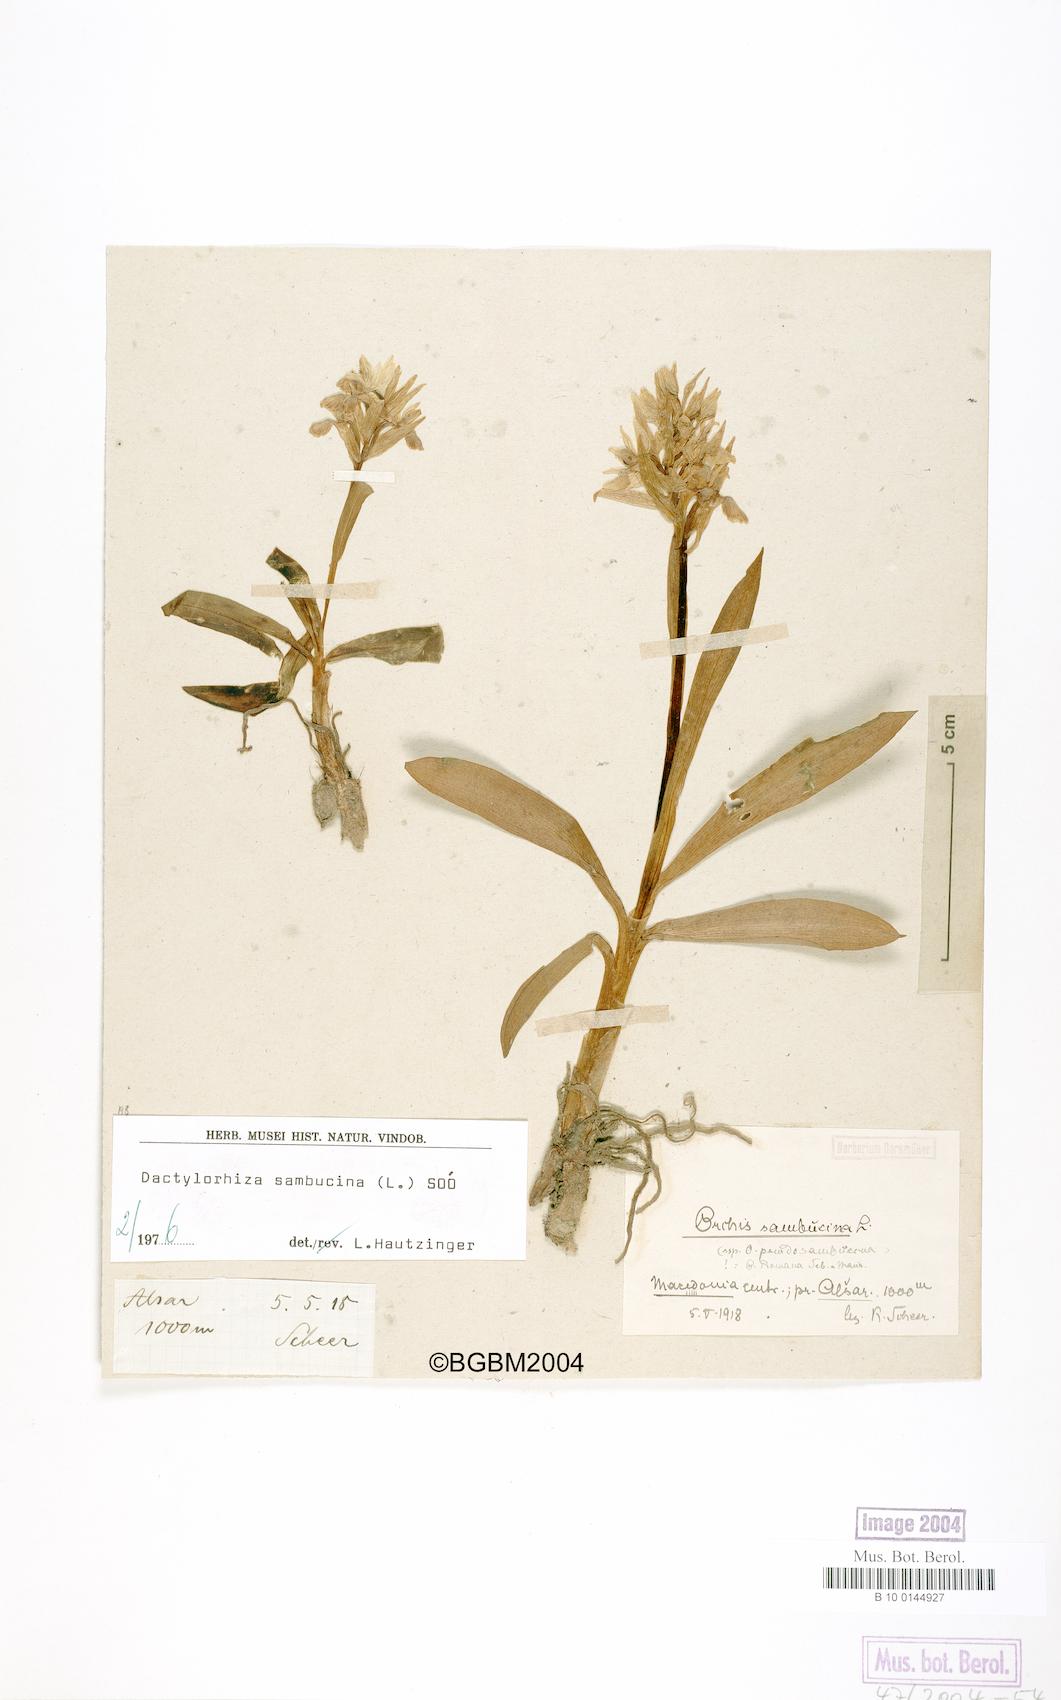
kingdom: Plantae
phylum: Tracheophyta
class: Liliopsida
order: Asparagales
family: Orchidaceae
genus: Dactylorhiza
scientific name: Dactylorhiza sambucina
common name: Elder-flowered orchid
